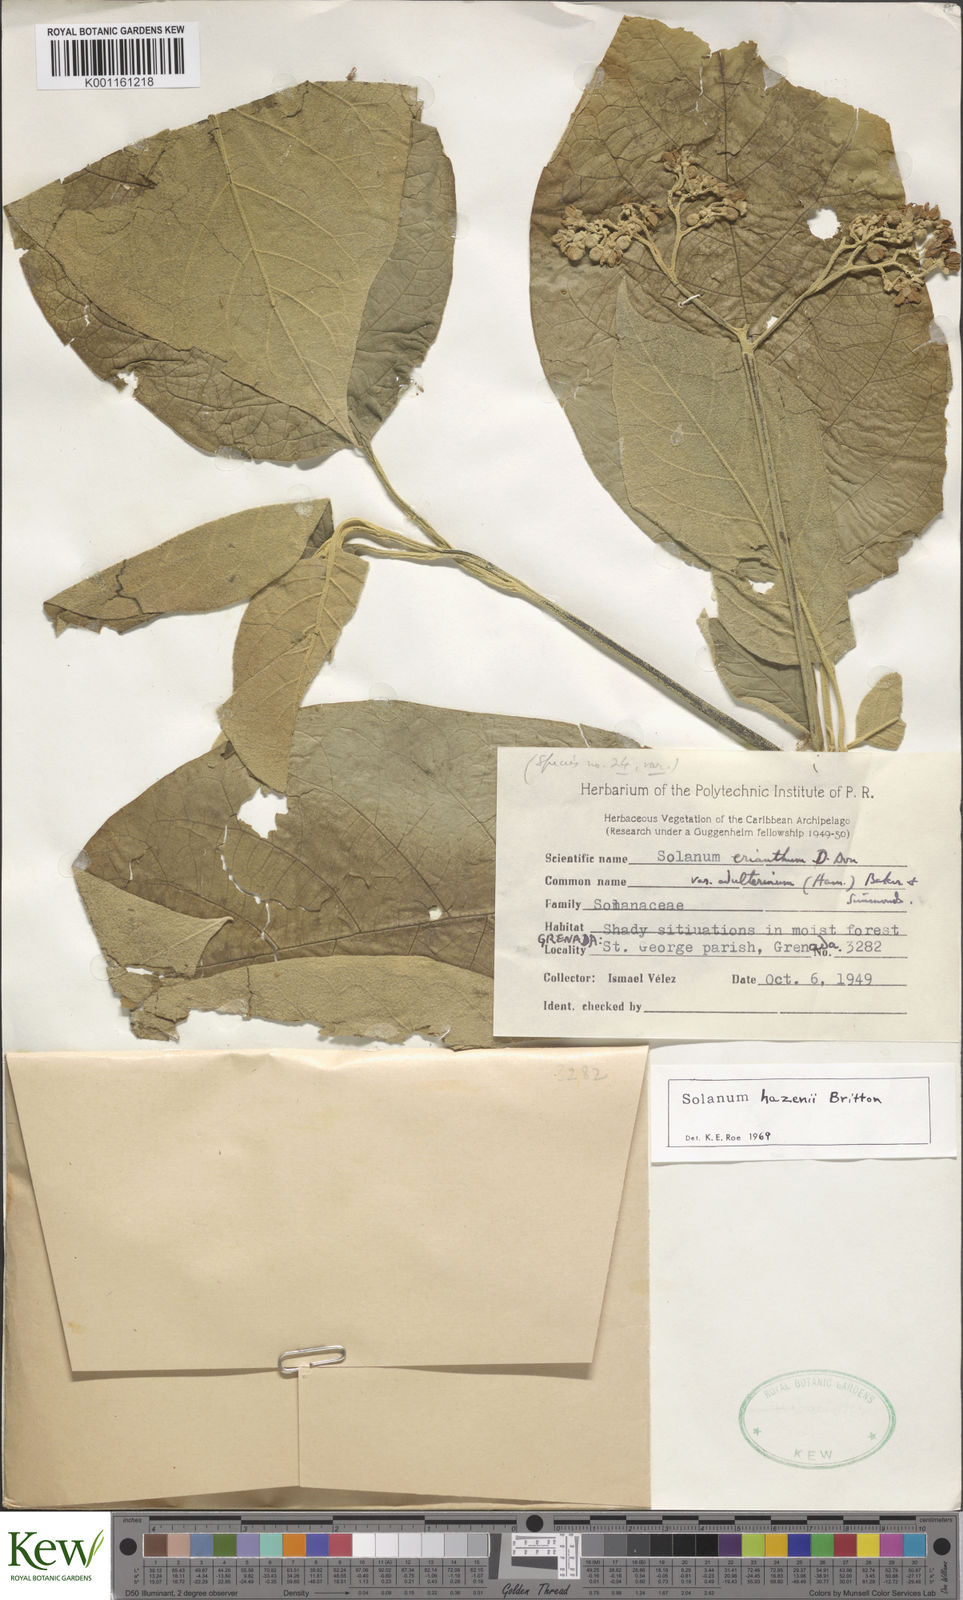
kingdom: Plantae
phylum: Tracheophyta
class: Magnoliopsida
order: Solanales
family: Solanaceae
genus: Solanum
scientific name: Solanum hazenii
